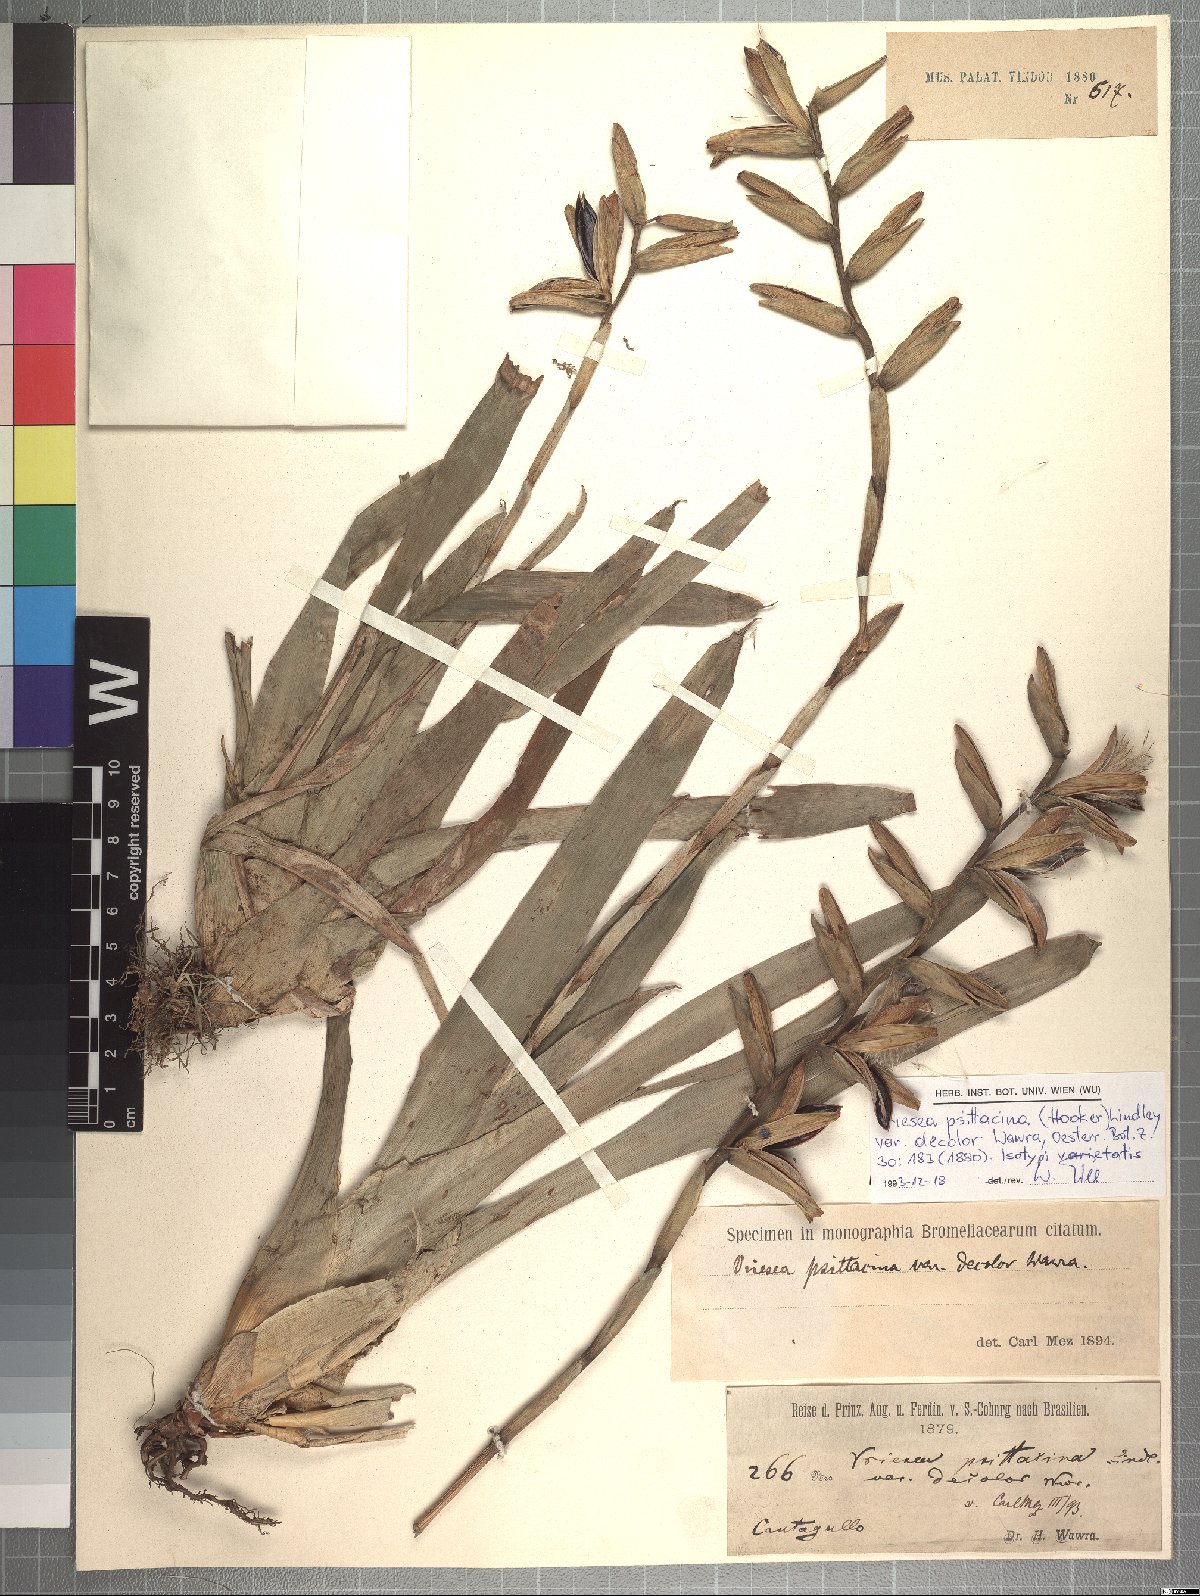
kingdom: Plantae
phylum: Tracheophyta
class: Liliopsida
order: Poales
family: Bromeliaceae
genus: Vriesea
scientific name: Vriesea psittacina
